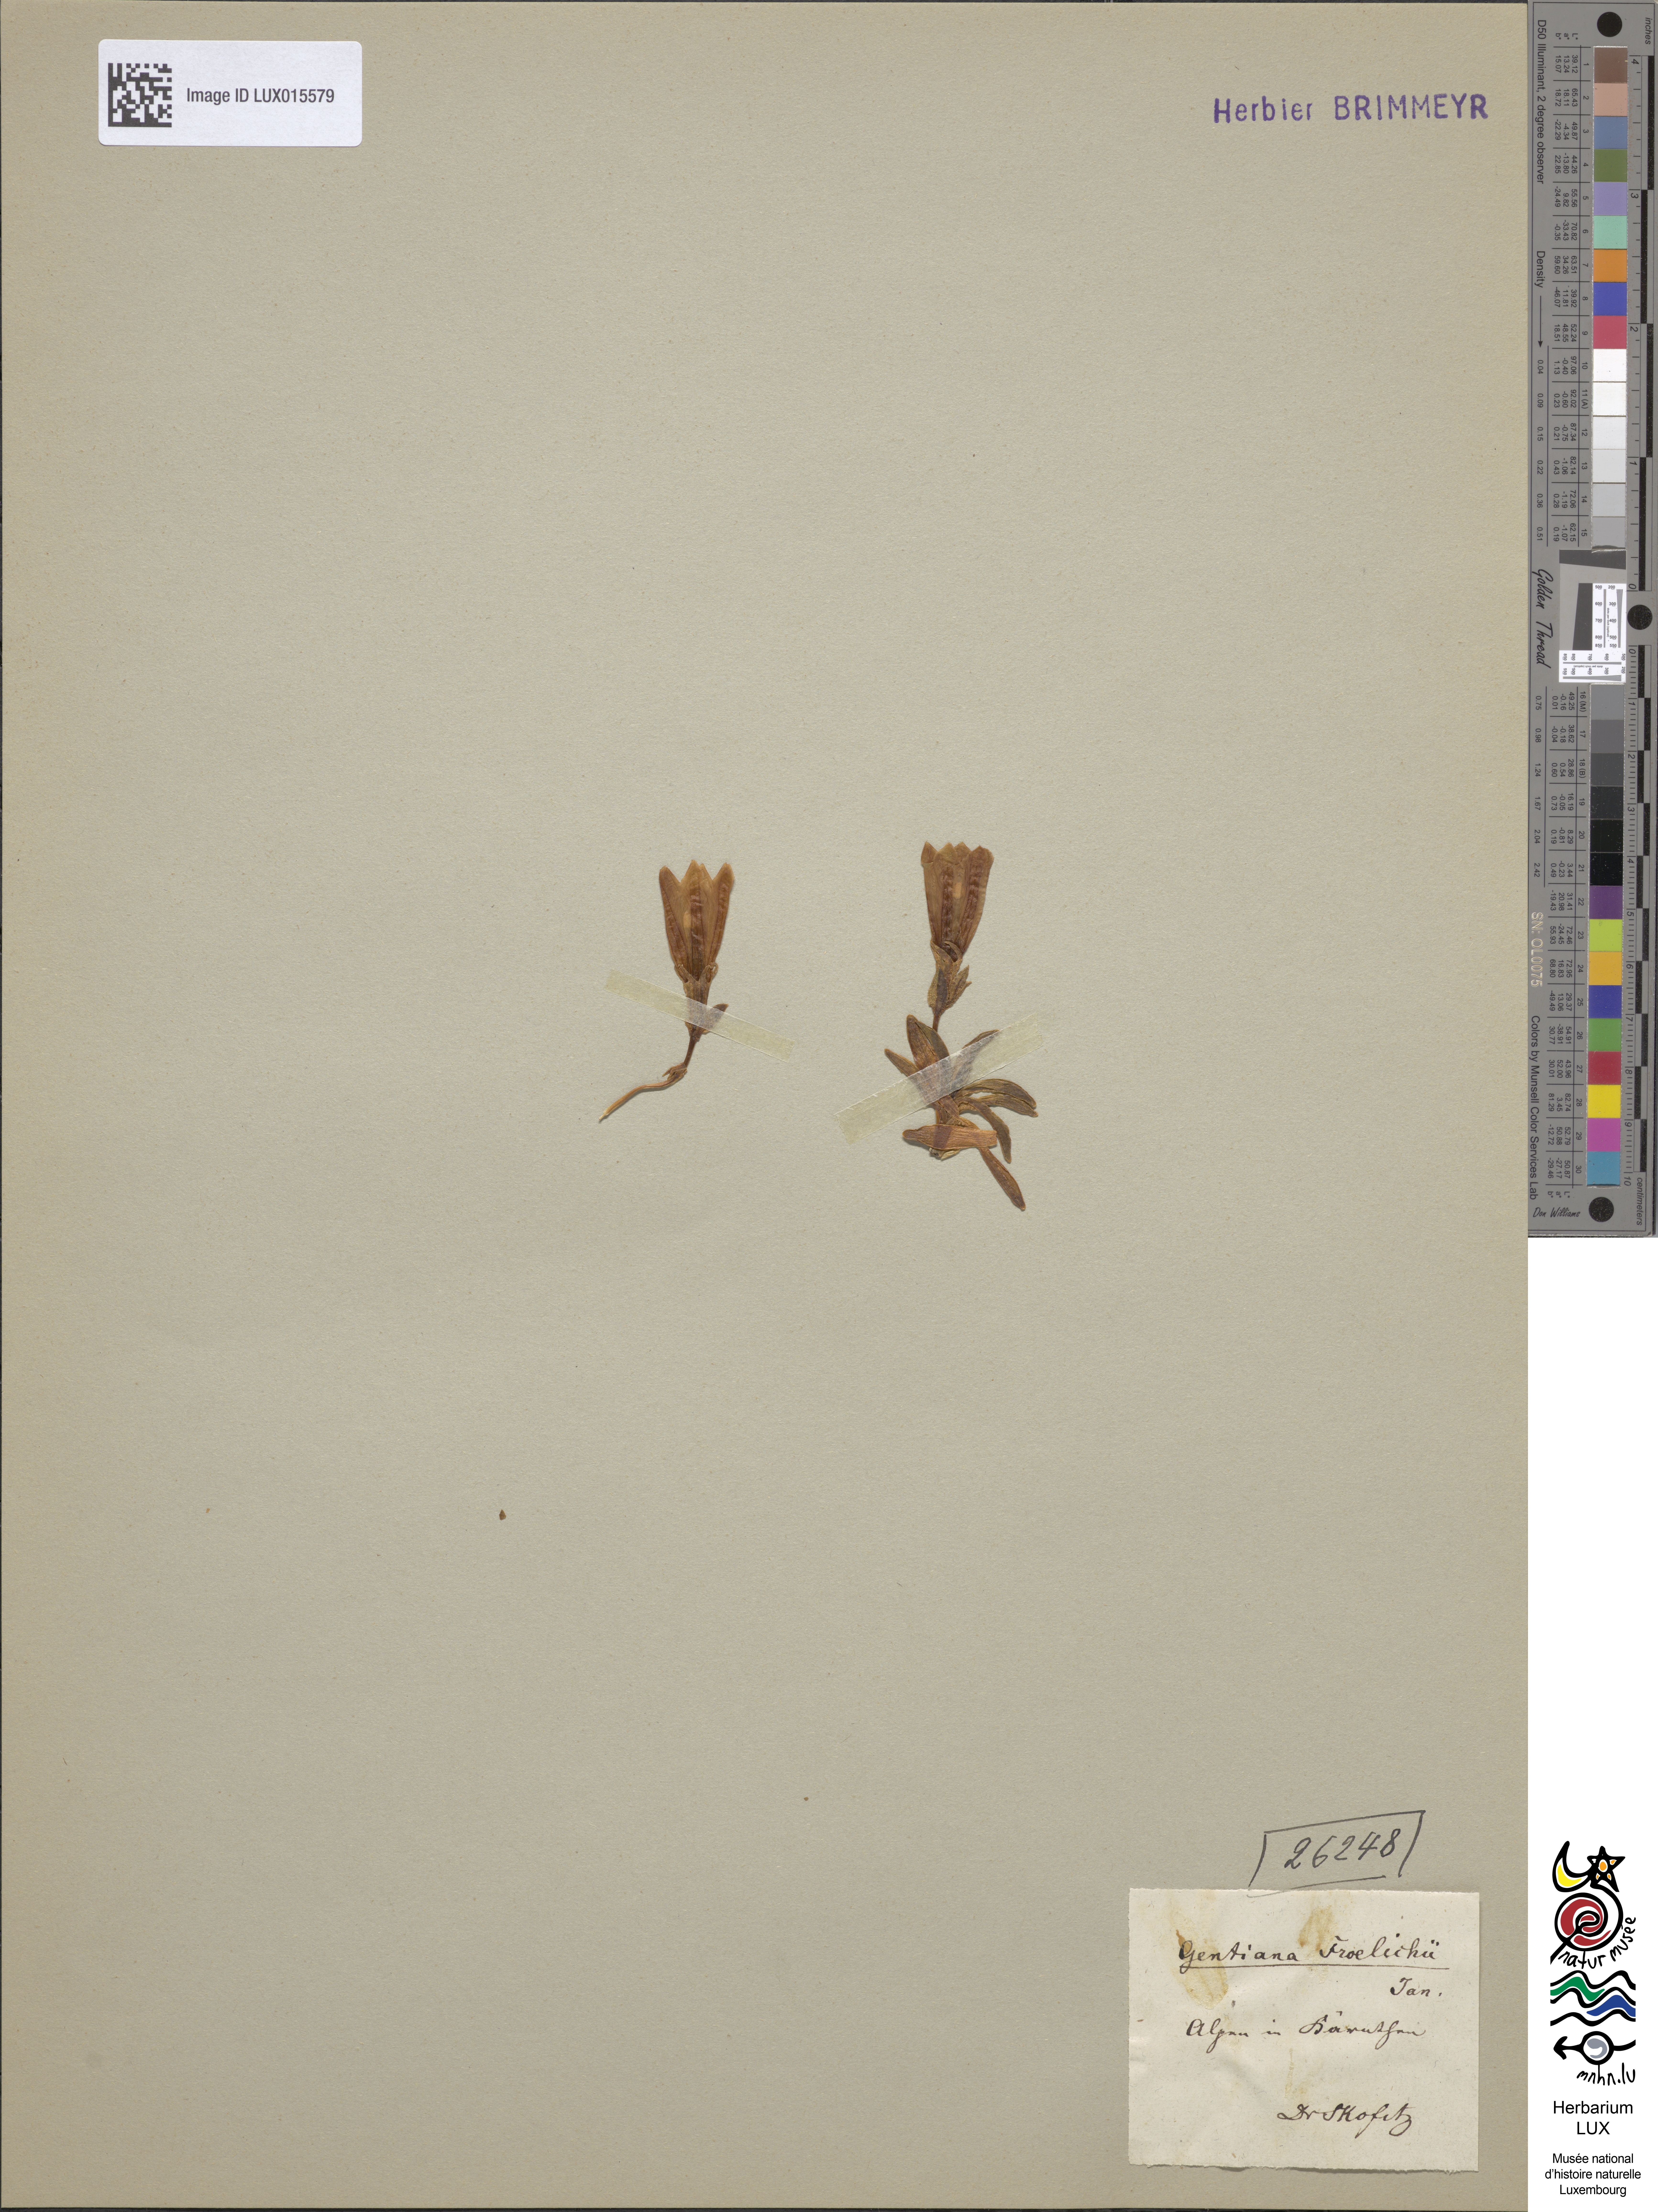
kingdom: Plantae
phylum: Tracheophyta
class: Magnoliopsida
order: Gentianales
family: Gentianaceae
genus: Gentiana
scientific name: Gentiana froelichii
